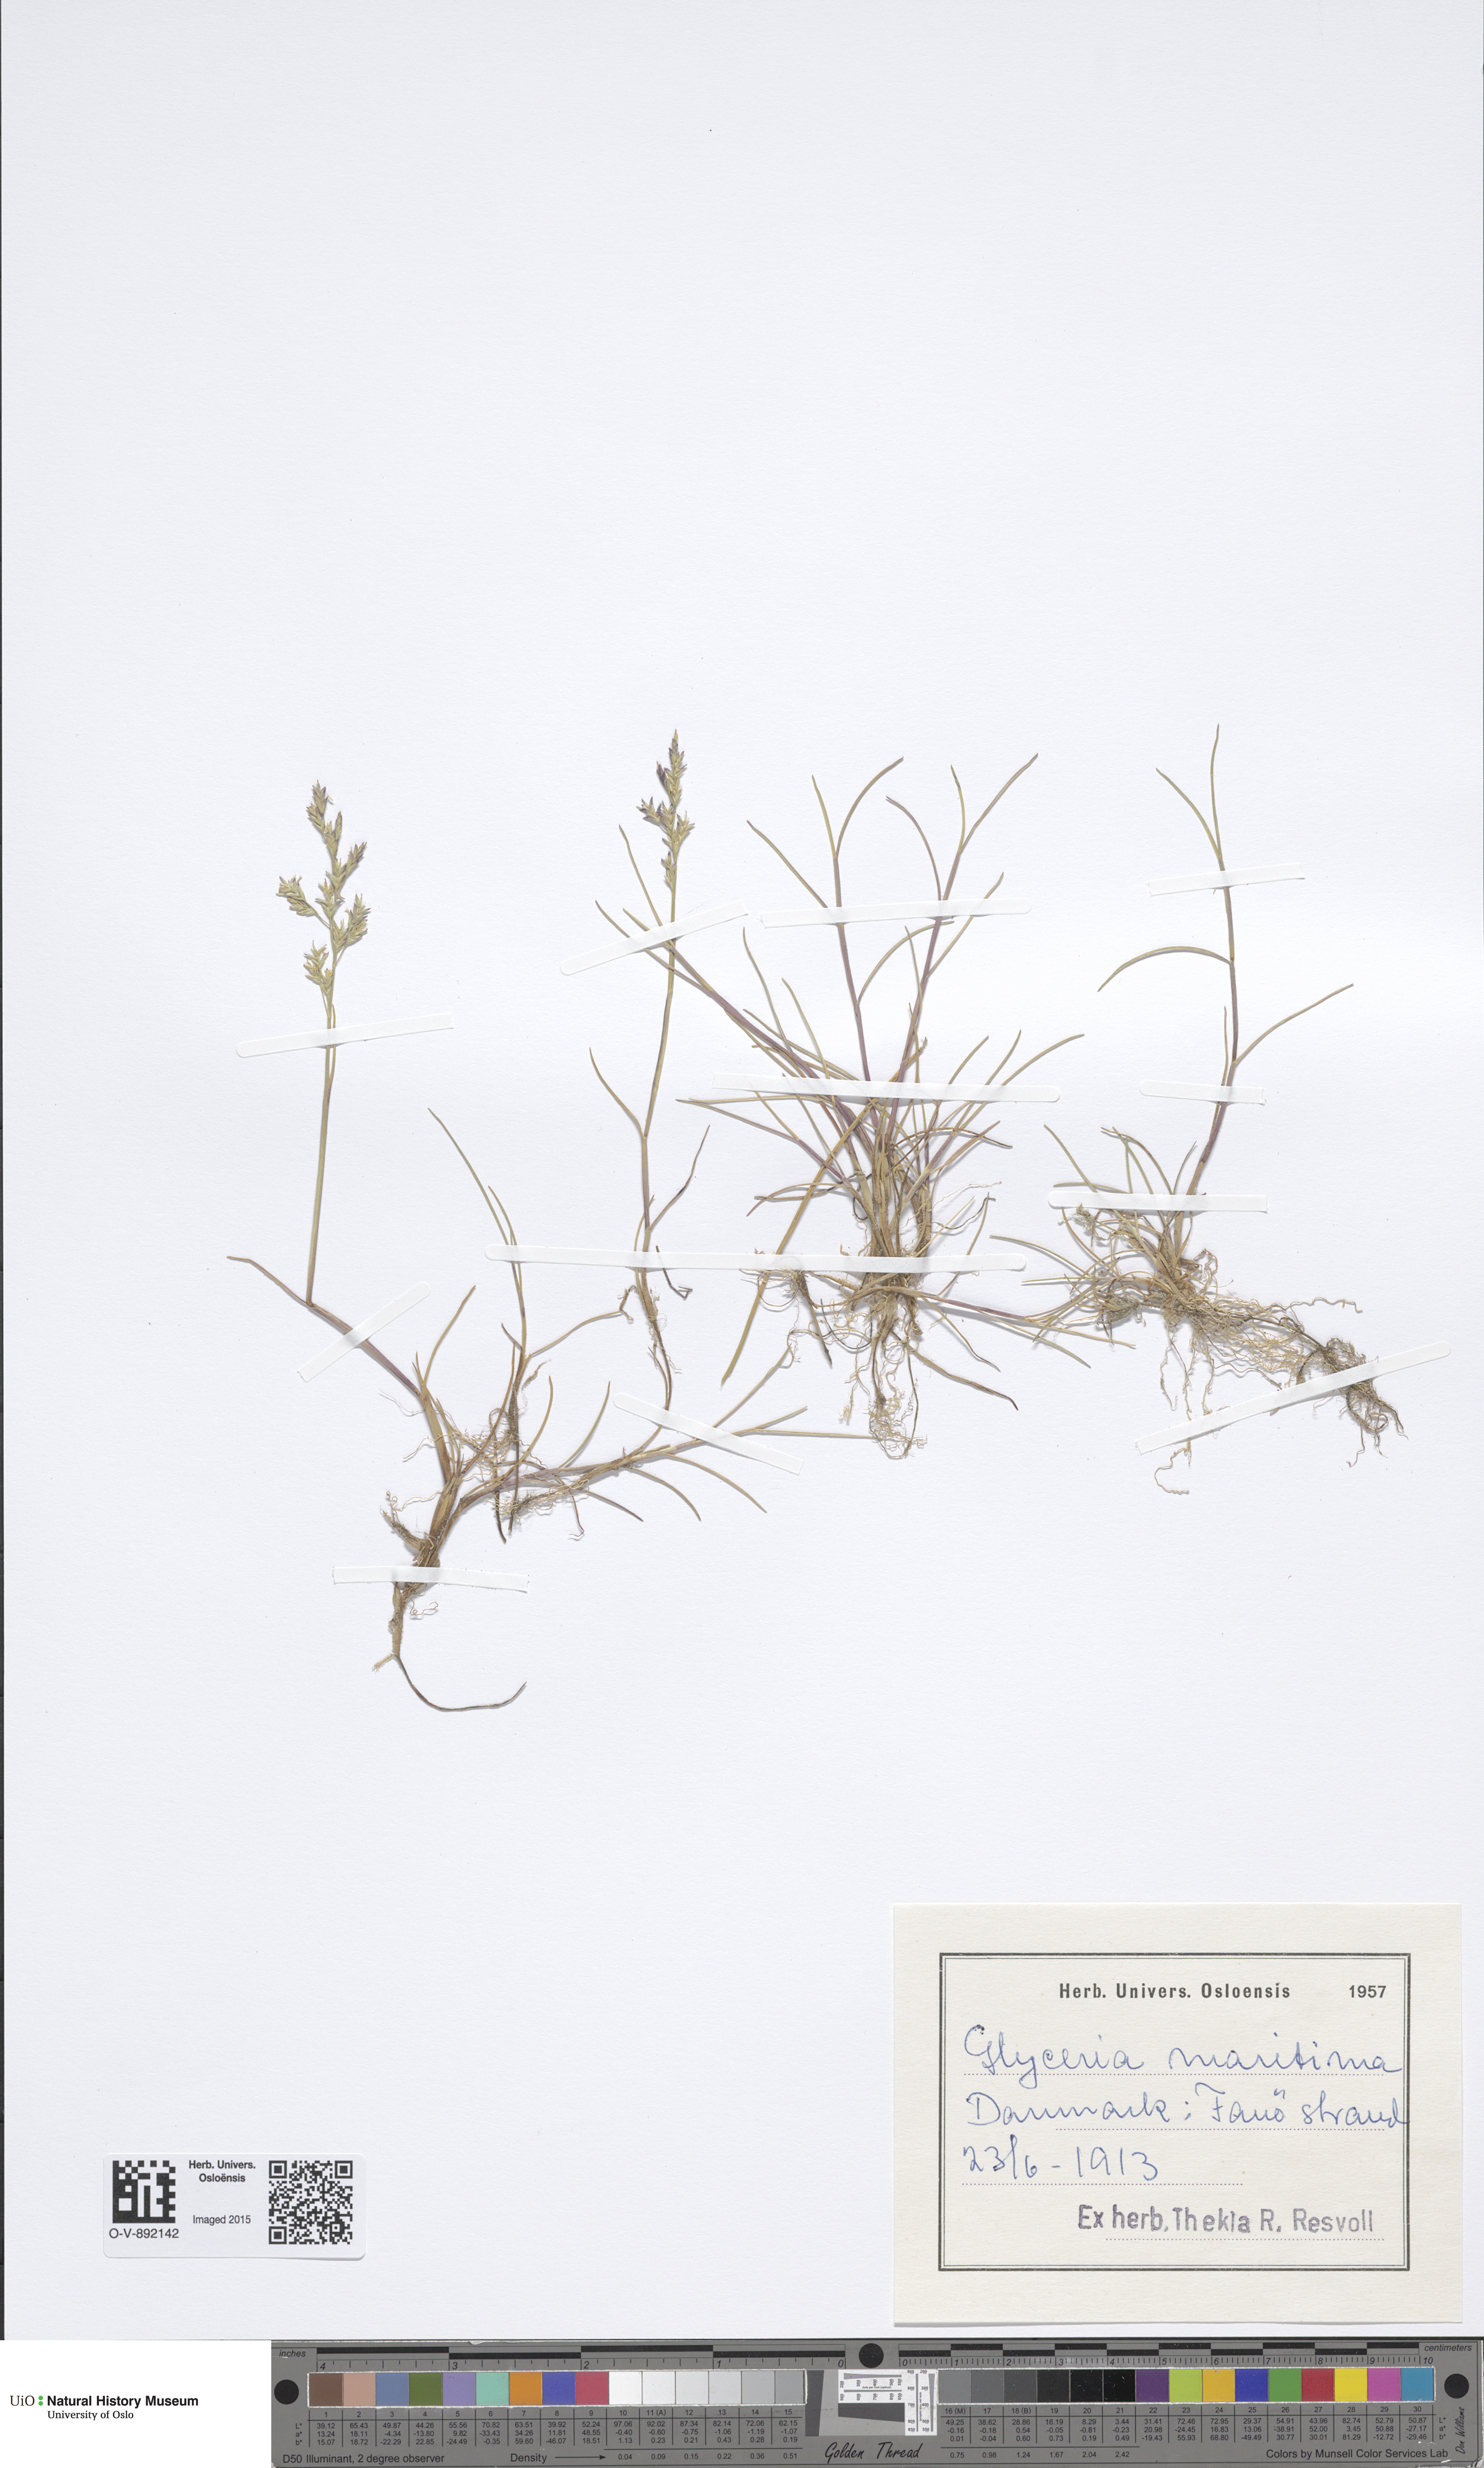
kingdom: Plantae
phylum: Tracheophyta
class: Liliopsida
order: Poales
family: Poaceae
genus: Puccinellia
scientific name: Puccinellia maritima
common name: Common saltmarsh grass
